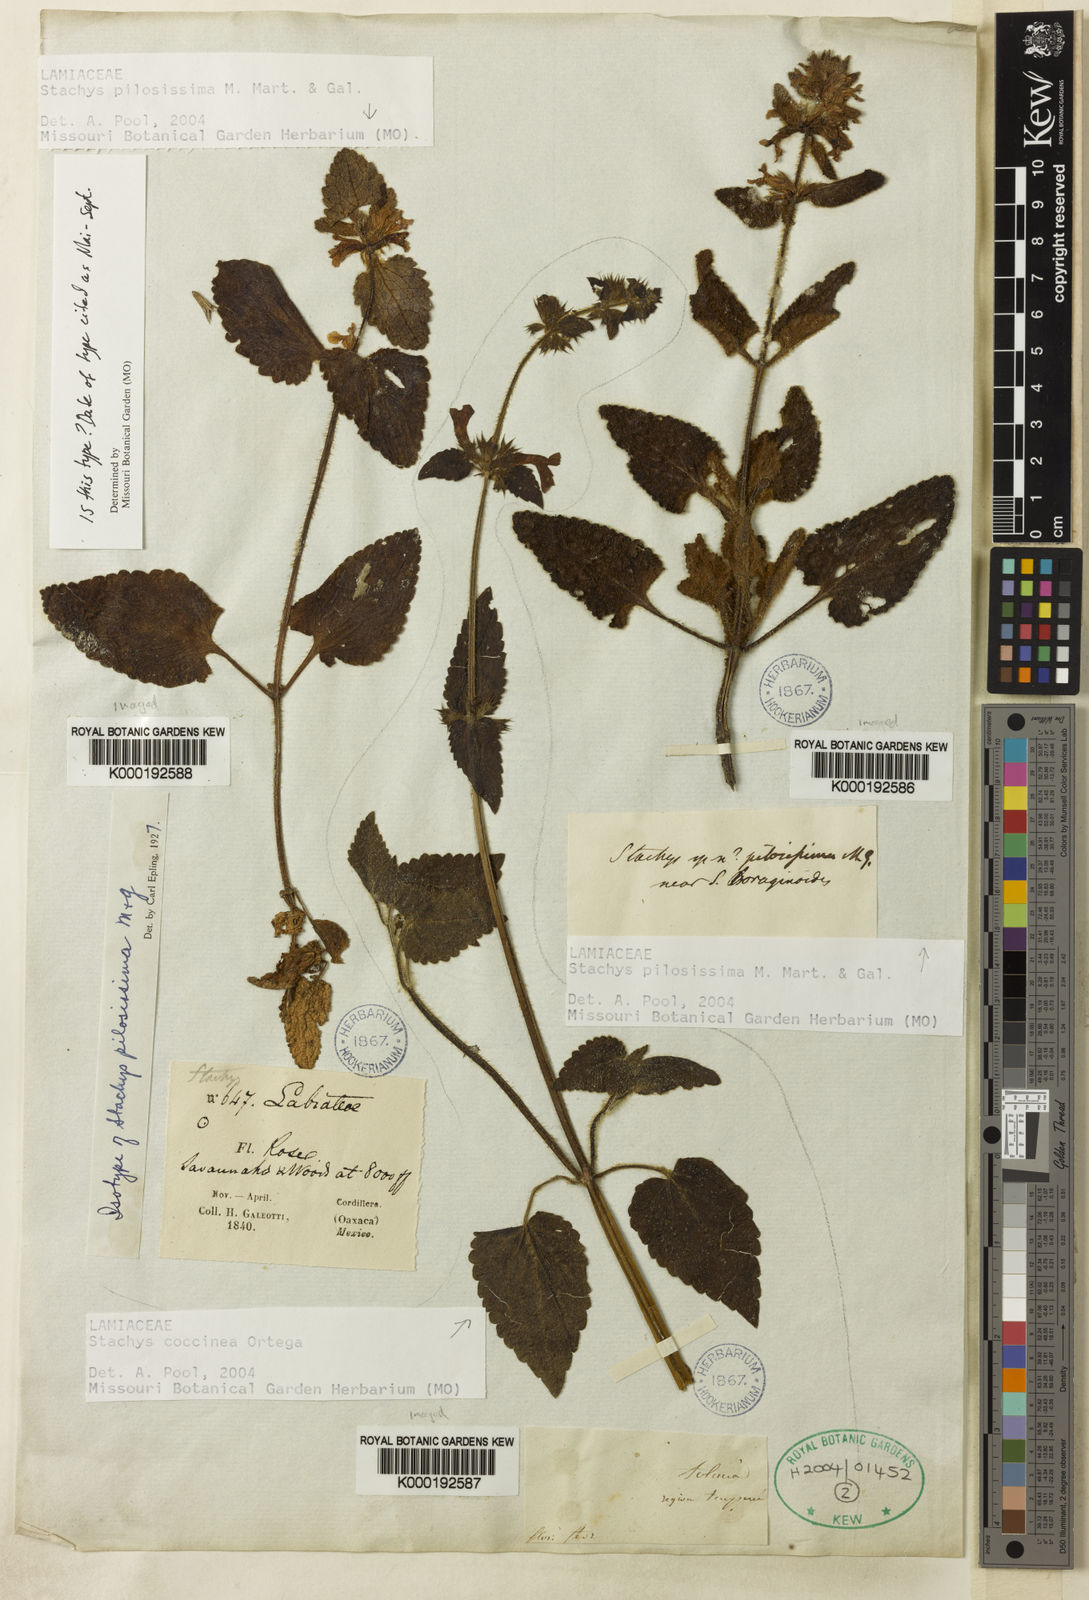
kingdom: Plantae
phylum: Tracheophyta
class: Magnoliopsida
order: Lamiales
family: Lamiaceae
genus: Stachys
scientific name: Stachys coccinea
